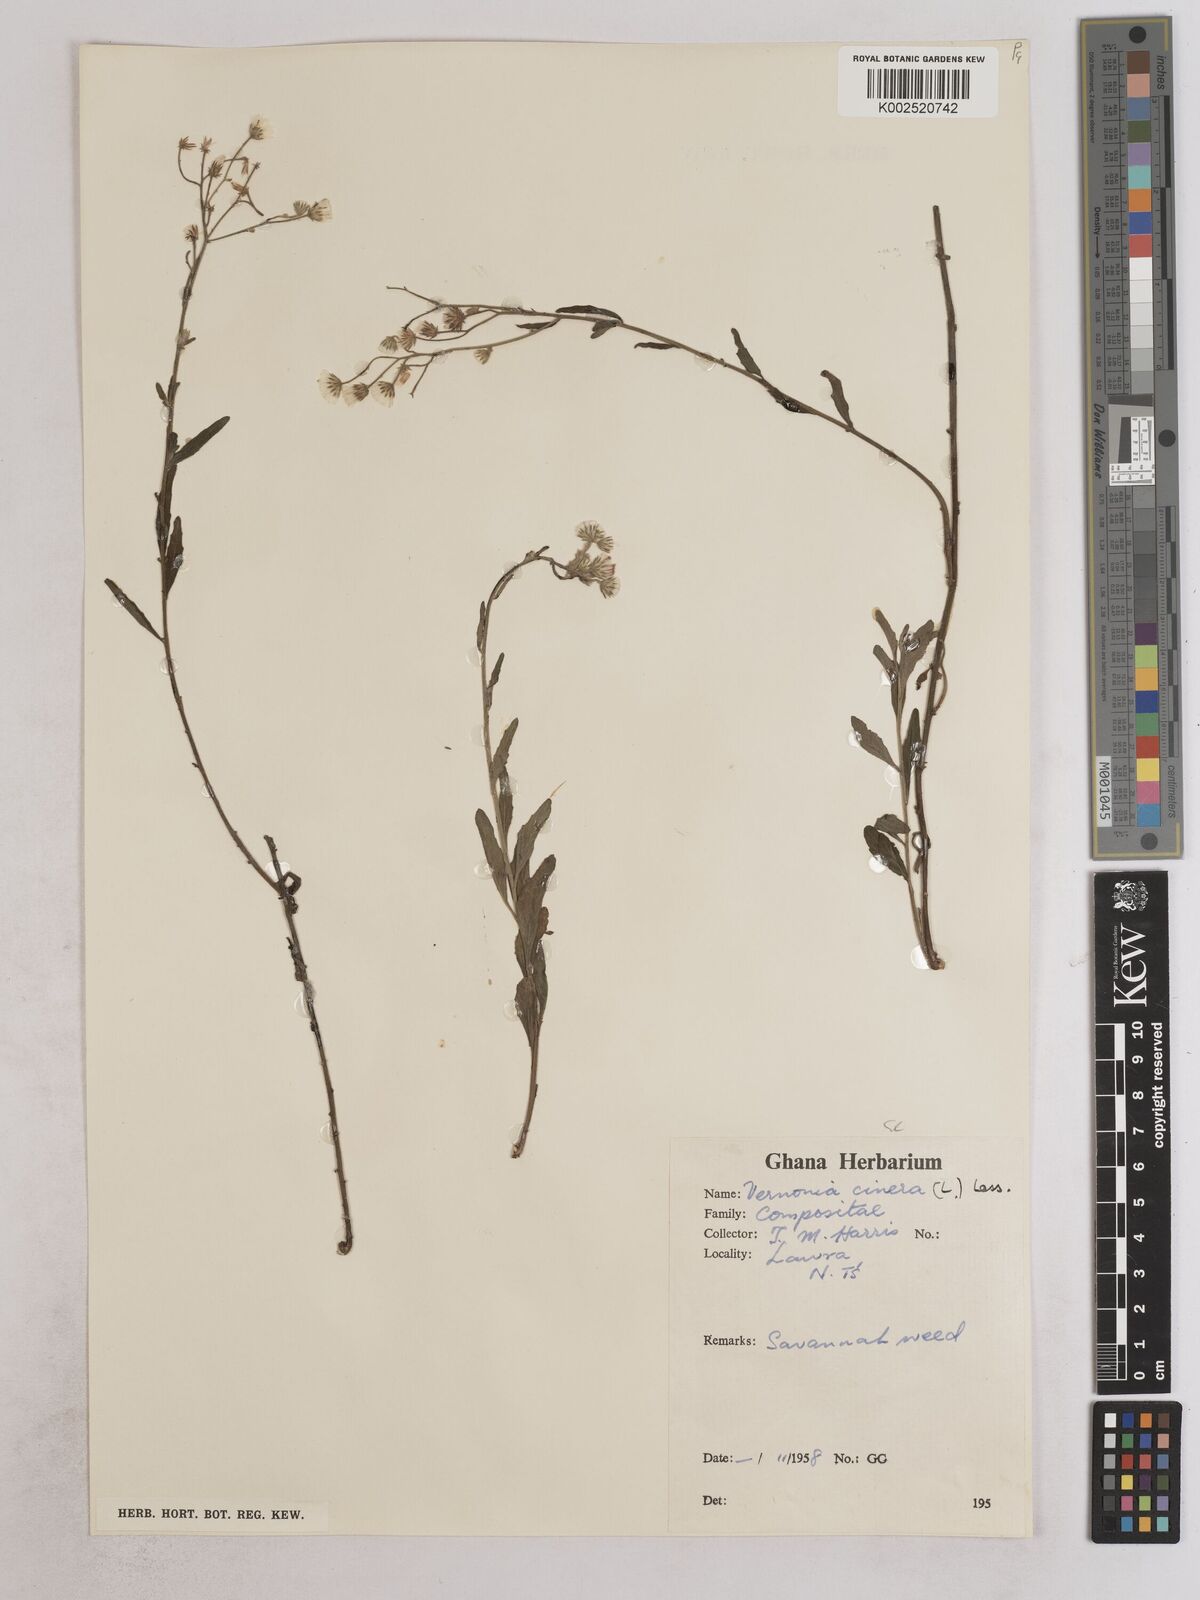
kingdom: Plantae
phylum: Tracheophyta
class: Magnoliopsida
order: Asterales
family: Asteraceae
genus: Cyanthillium
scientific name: Cyanthillium cinereum
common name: Little ironweed
